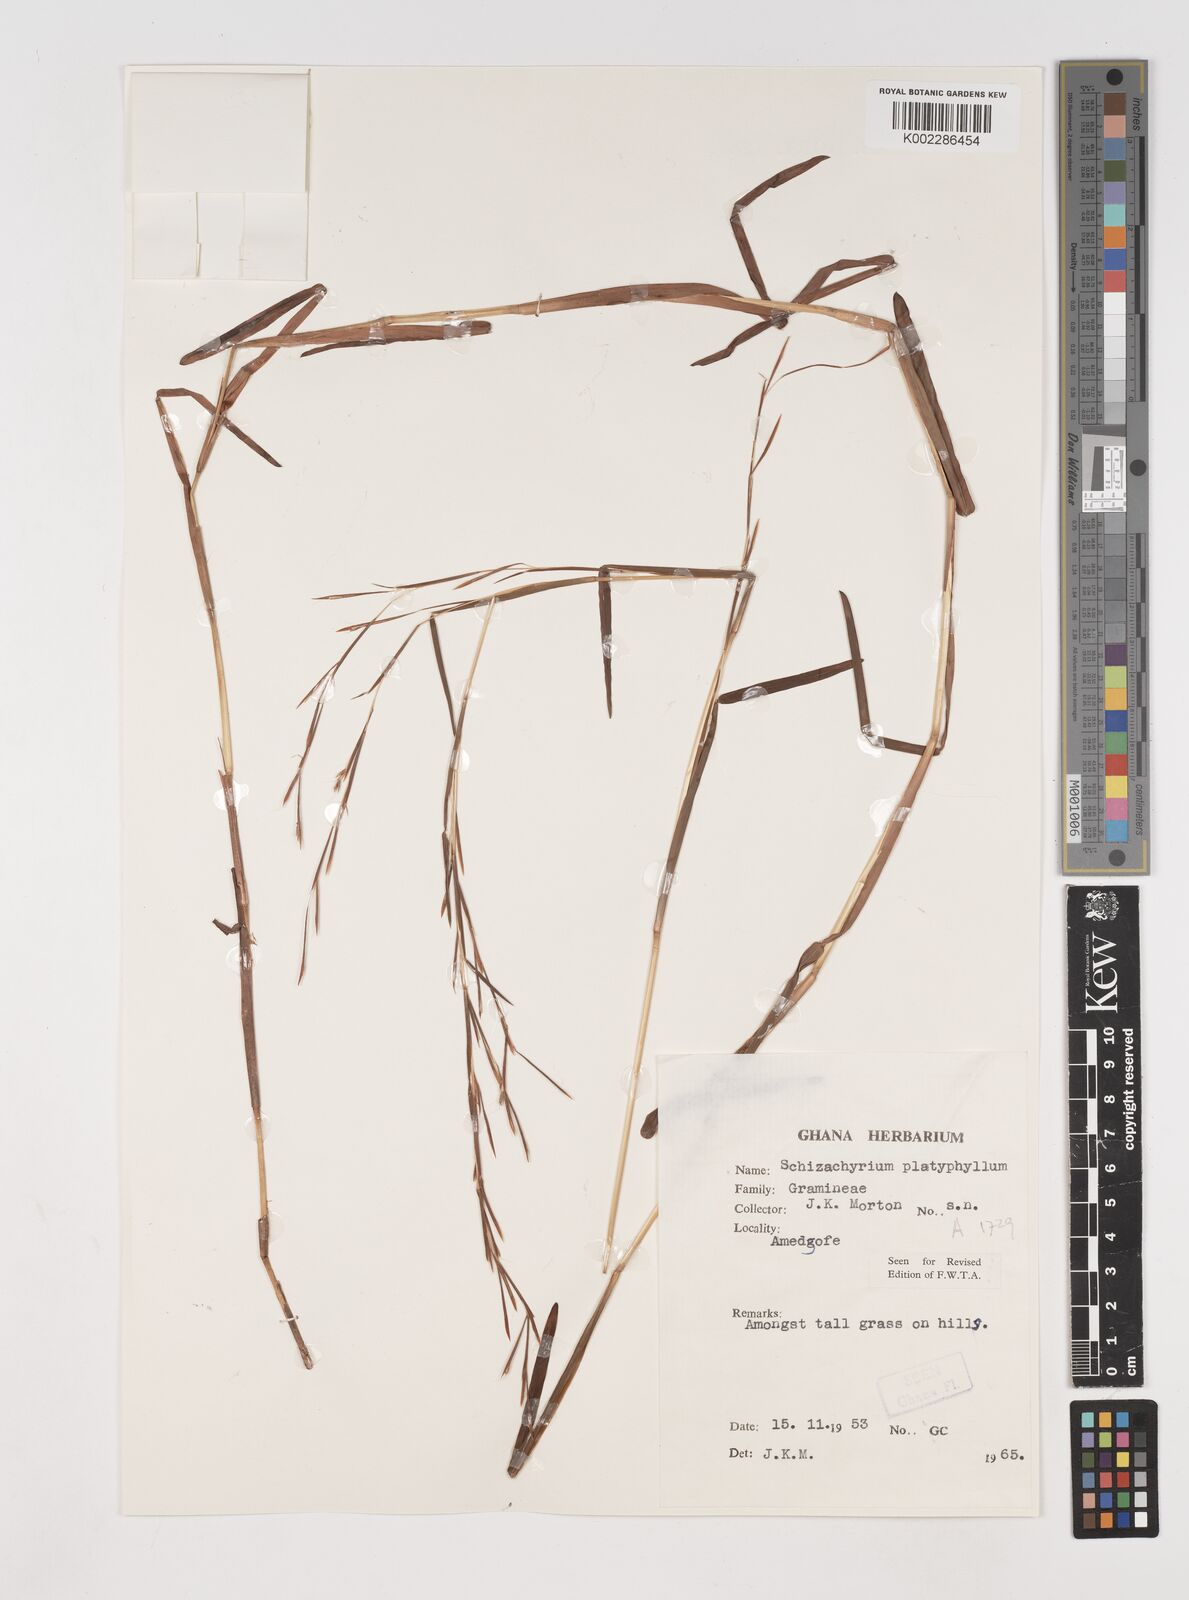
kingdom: Plantae
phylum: Tracheophyta
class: Liliopsida
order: Poales
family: Poaceae
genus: Schizachyrium
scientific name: Schizachyrium platyphyllum
